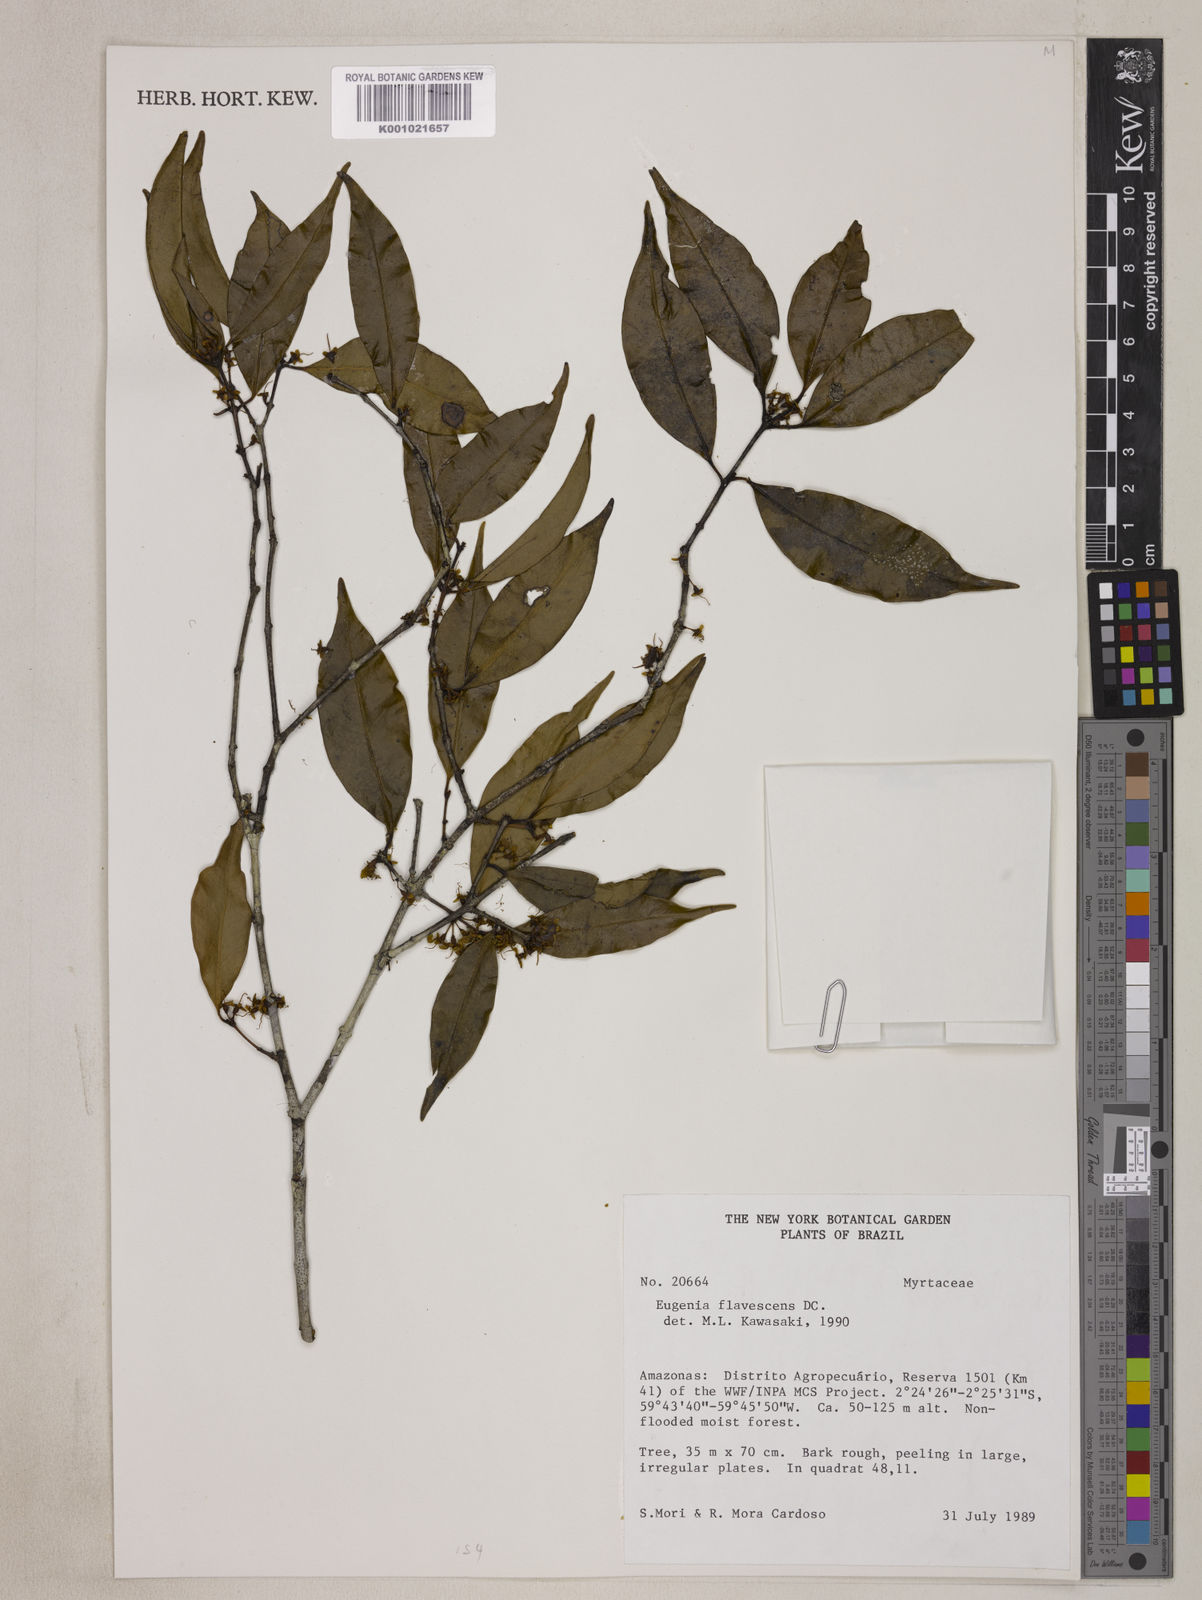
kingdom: Plantae
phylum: Tracheophyta
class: Magnoliopsida
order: Myrtales
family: Myrtaceae
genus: Eugenia
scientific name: Eugenia flavescens
